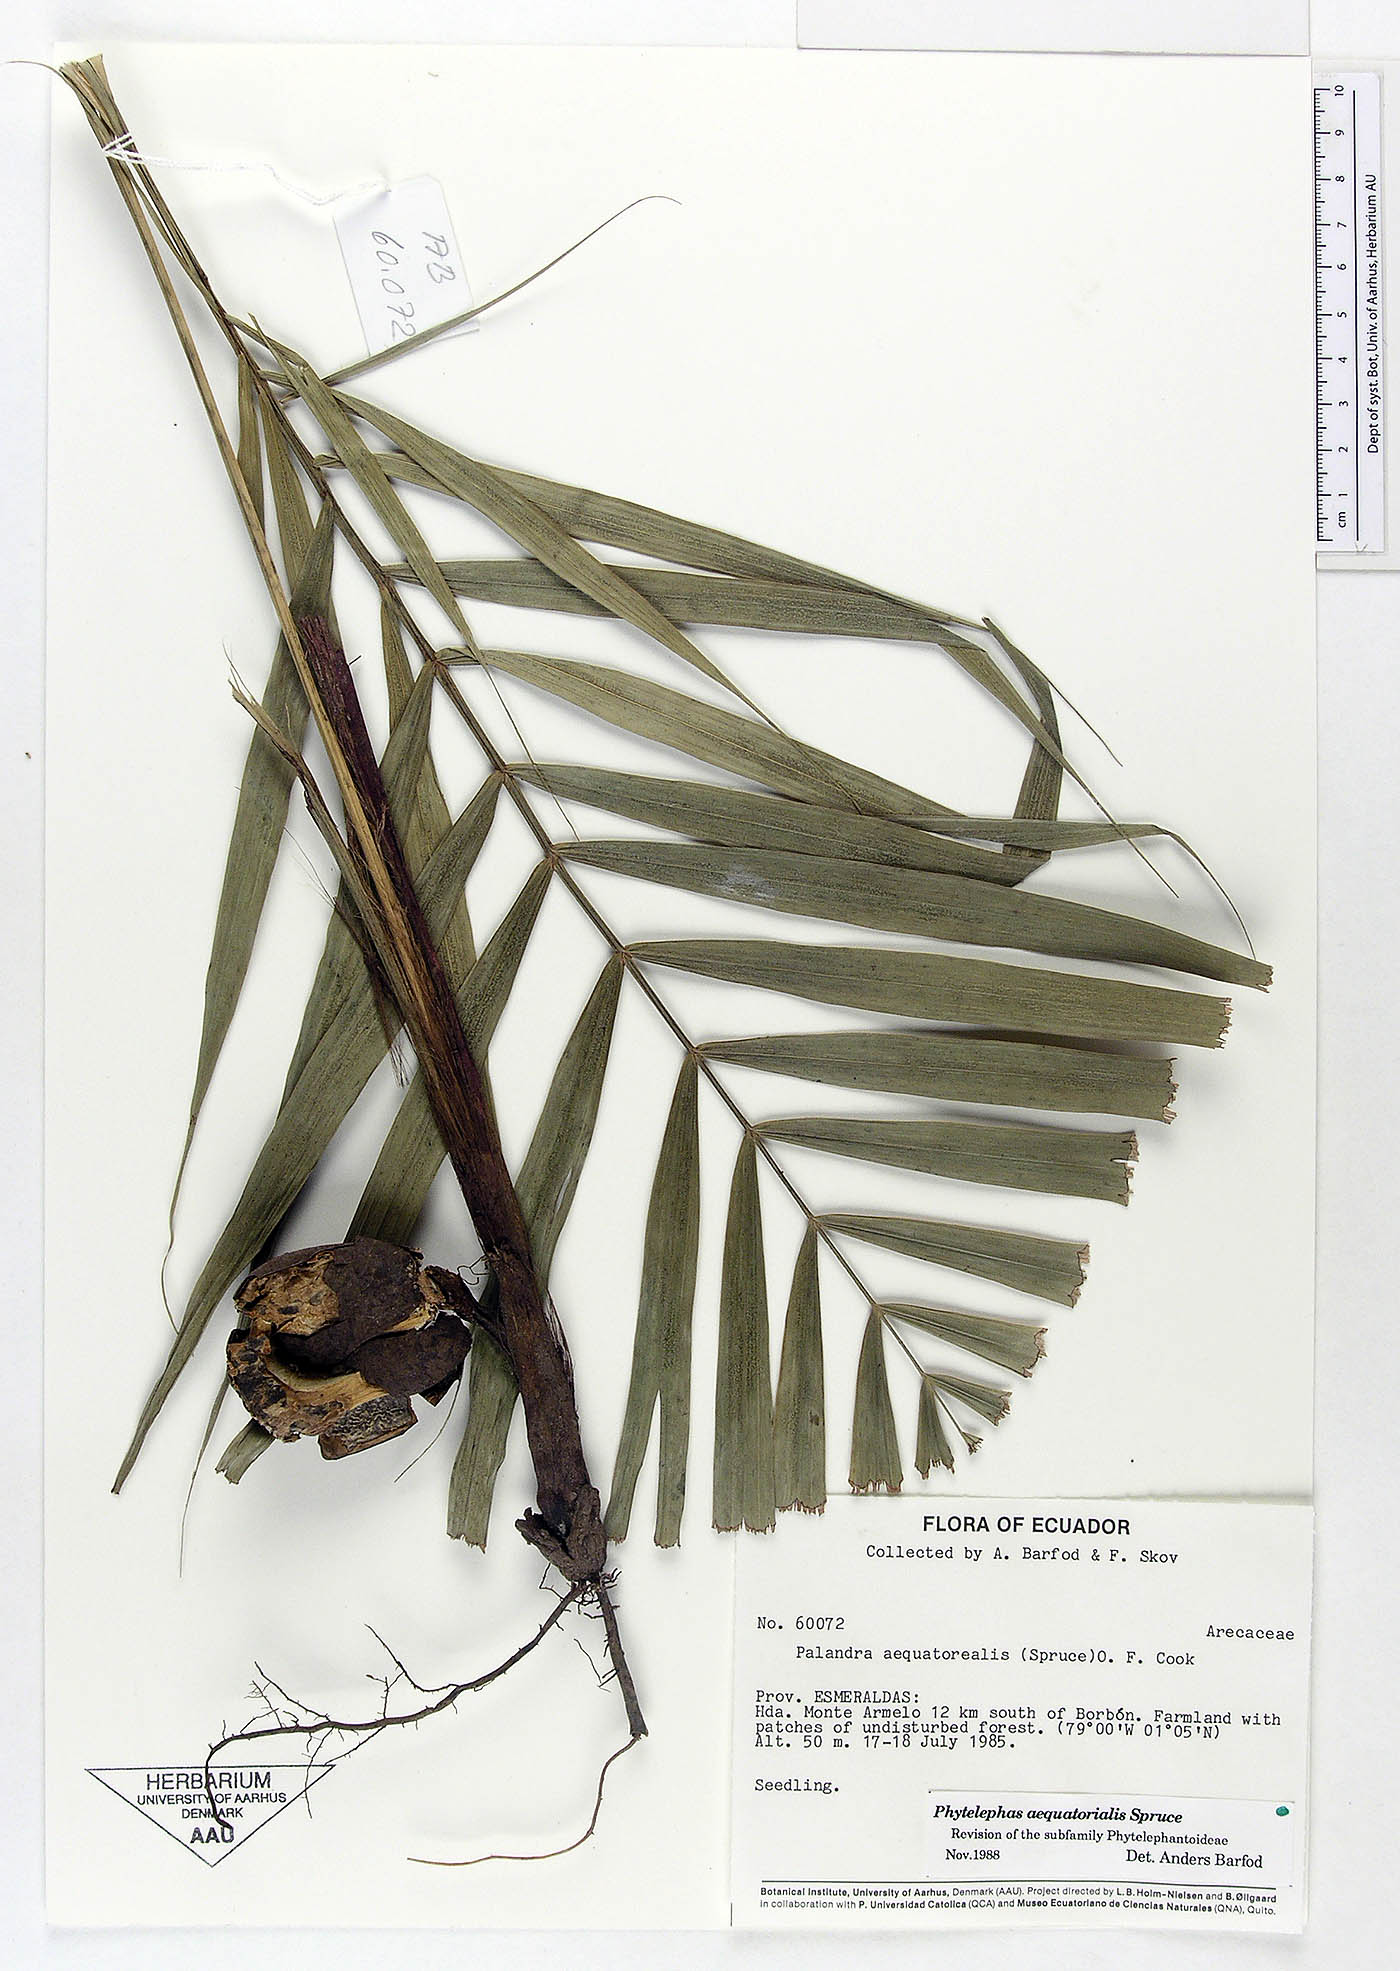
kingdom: Plantae
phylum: Tracheophyta
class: Liliopsida
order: Arecales
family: Arecaceae
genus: Phytelephas
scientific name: Phytelephas aequatorialis
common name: Ivory palm
